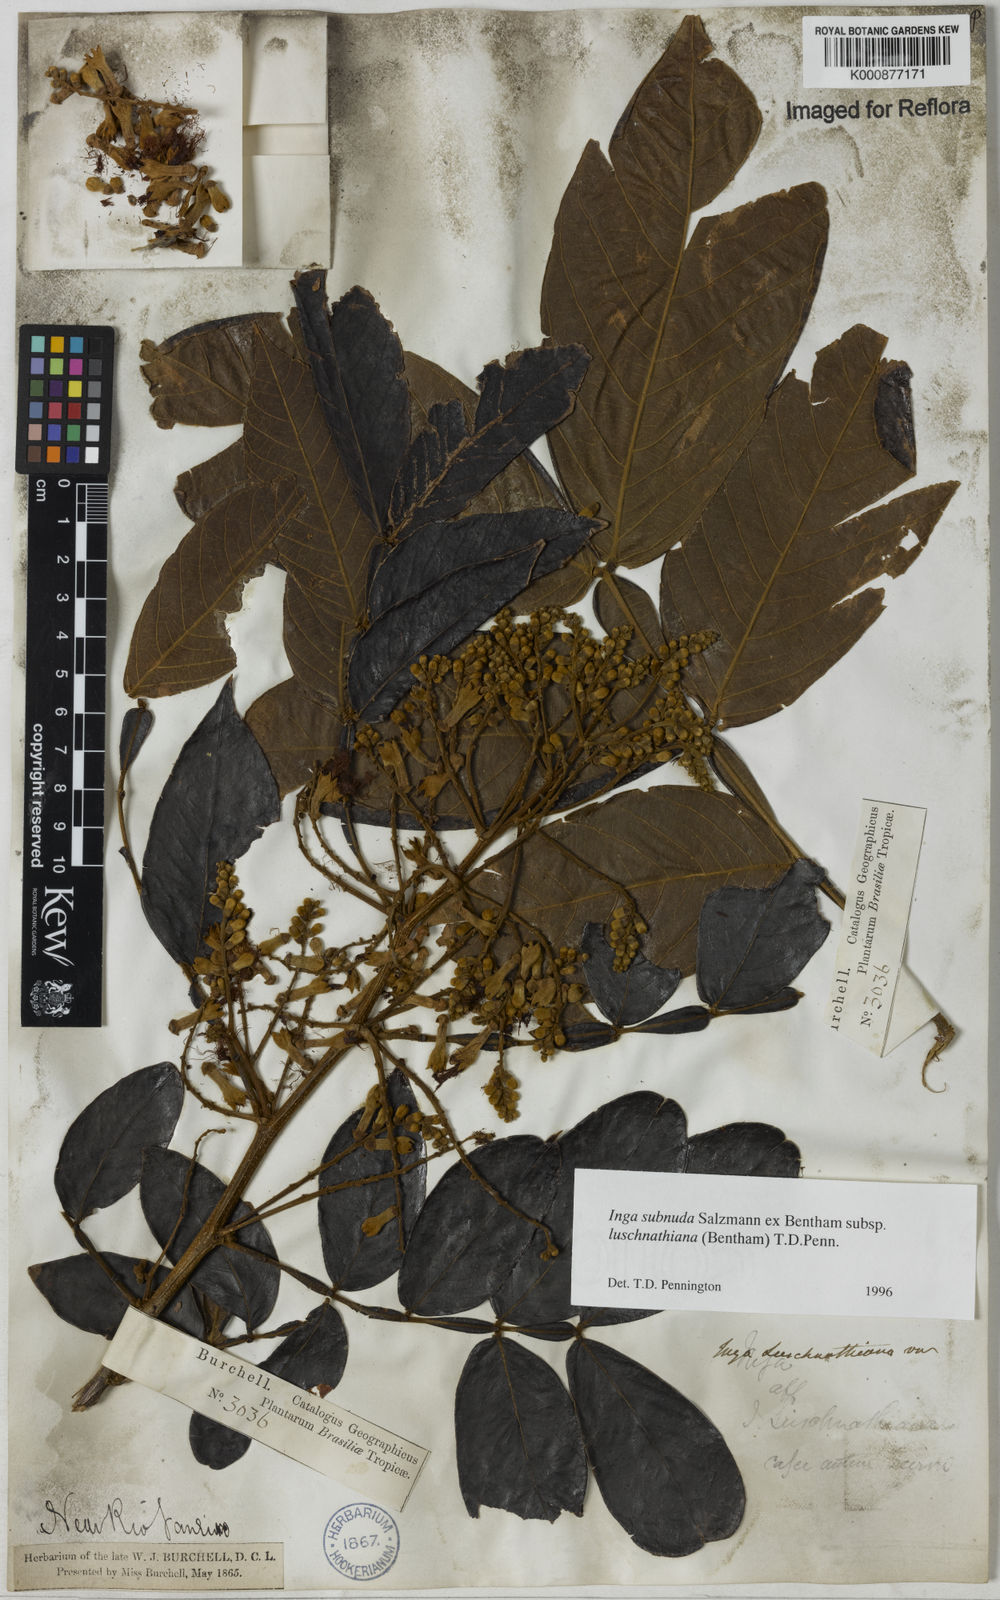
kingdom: Plantae
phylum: Tracheophyta
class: Magnoliopsida
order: Fabales
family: Fabaceae
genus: Inga
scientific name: Inga subnuda
